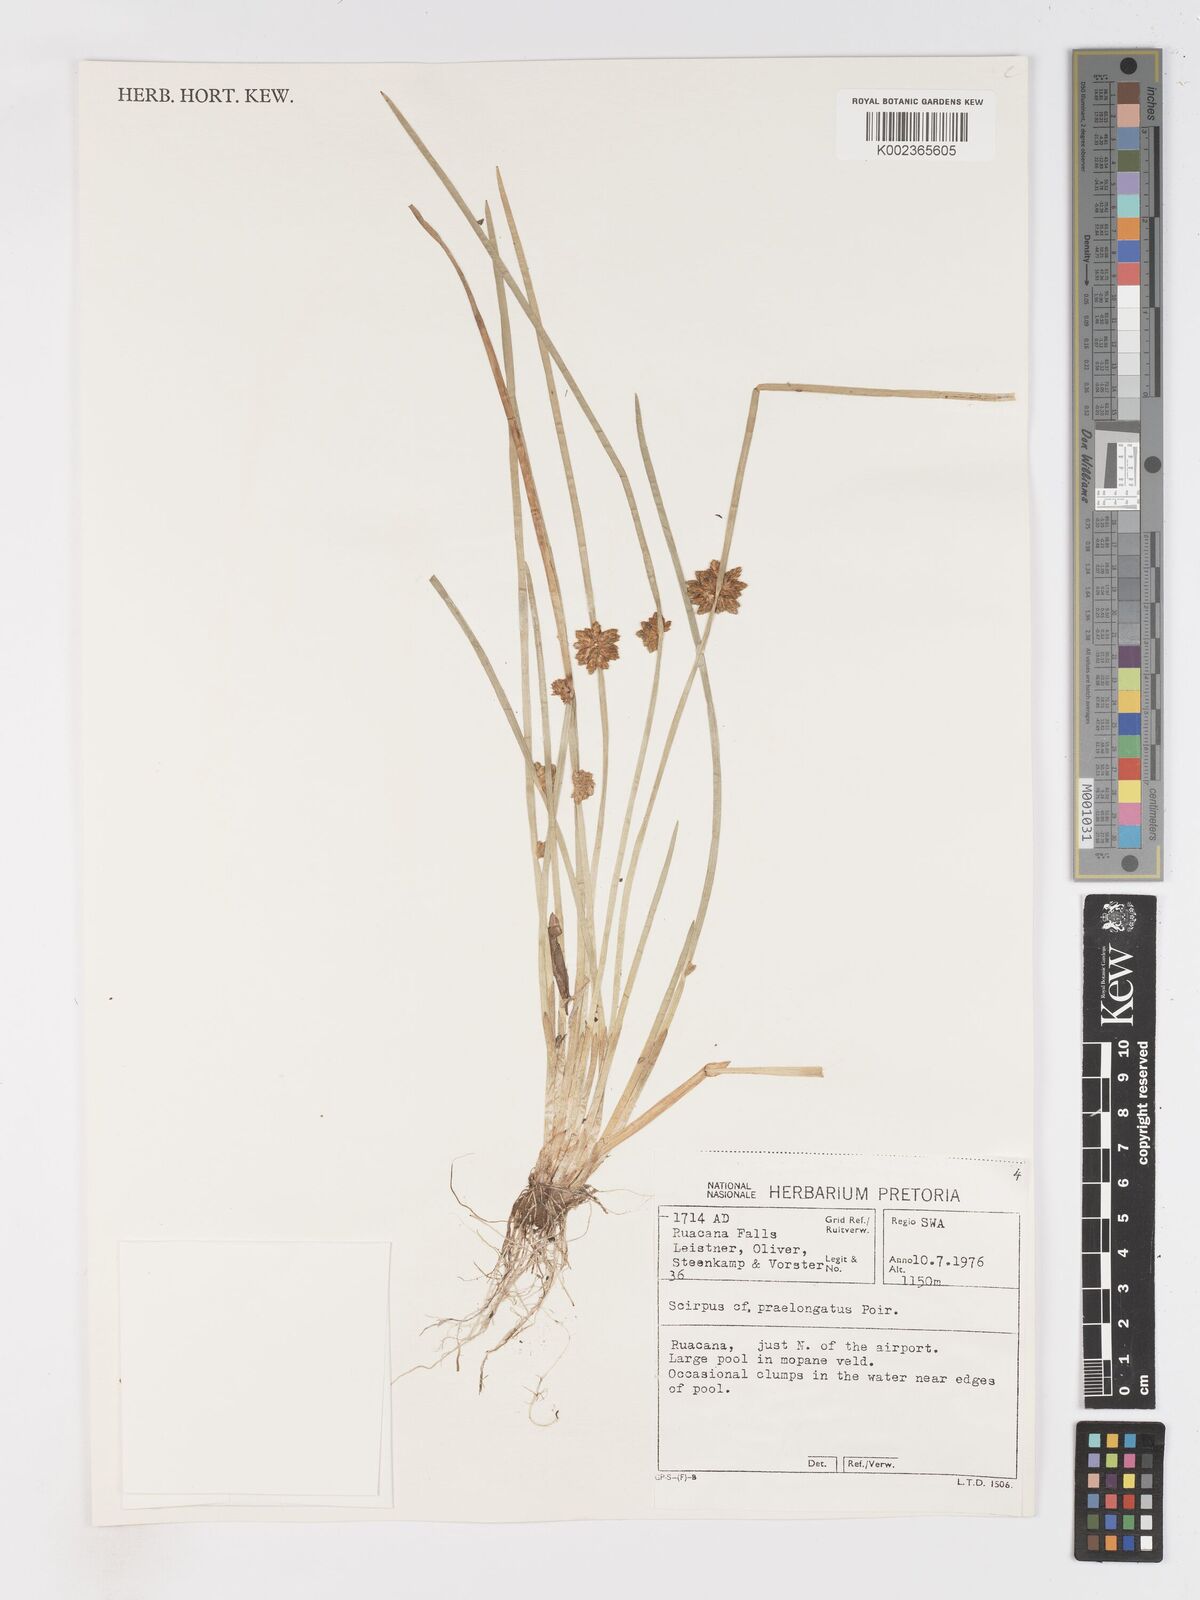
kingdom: Plantae
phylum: Tracheophyta
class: Liliopsida
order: Poales
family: Cyperaceae
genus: Schoenoplectiella
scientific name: Schoenoplectiella senegalensis
